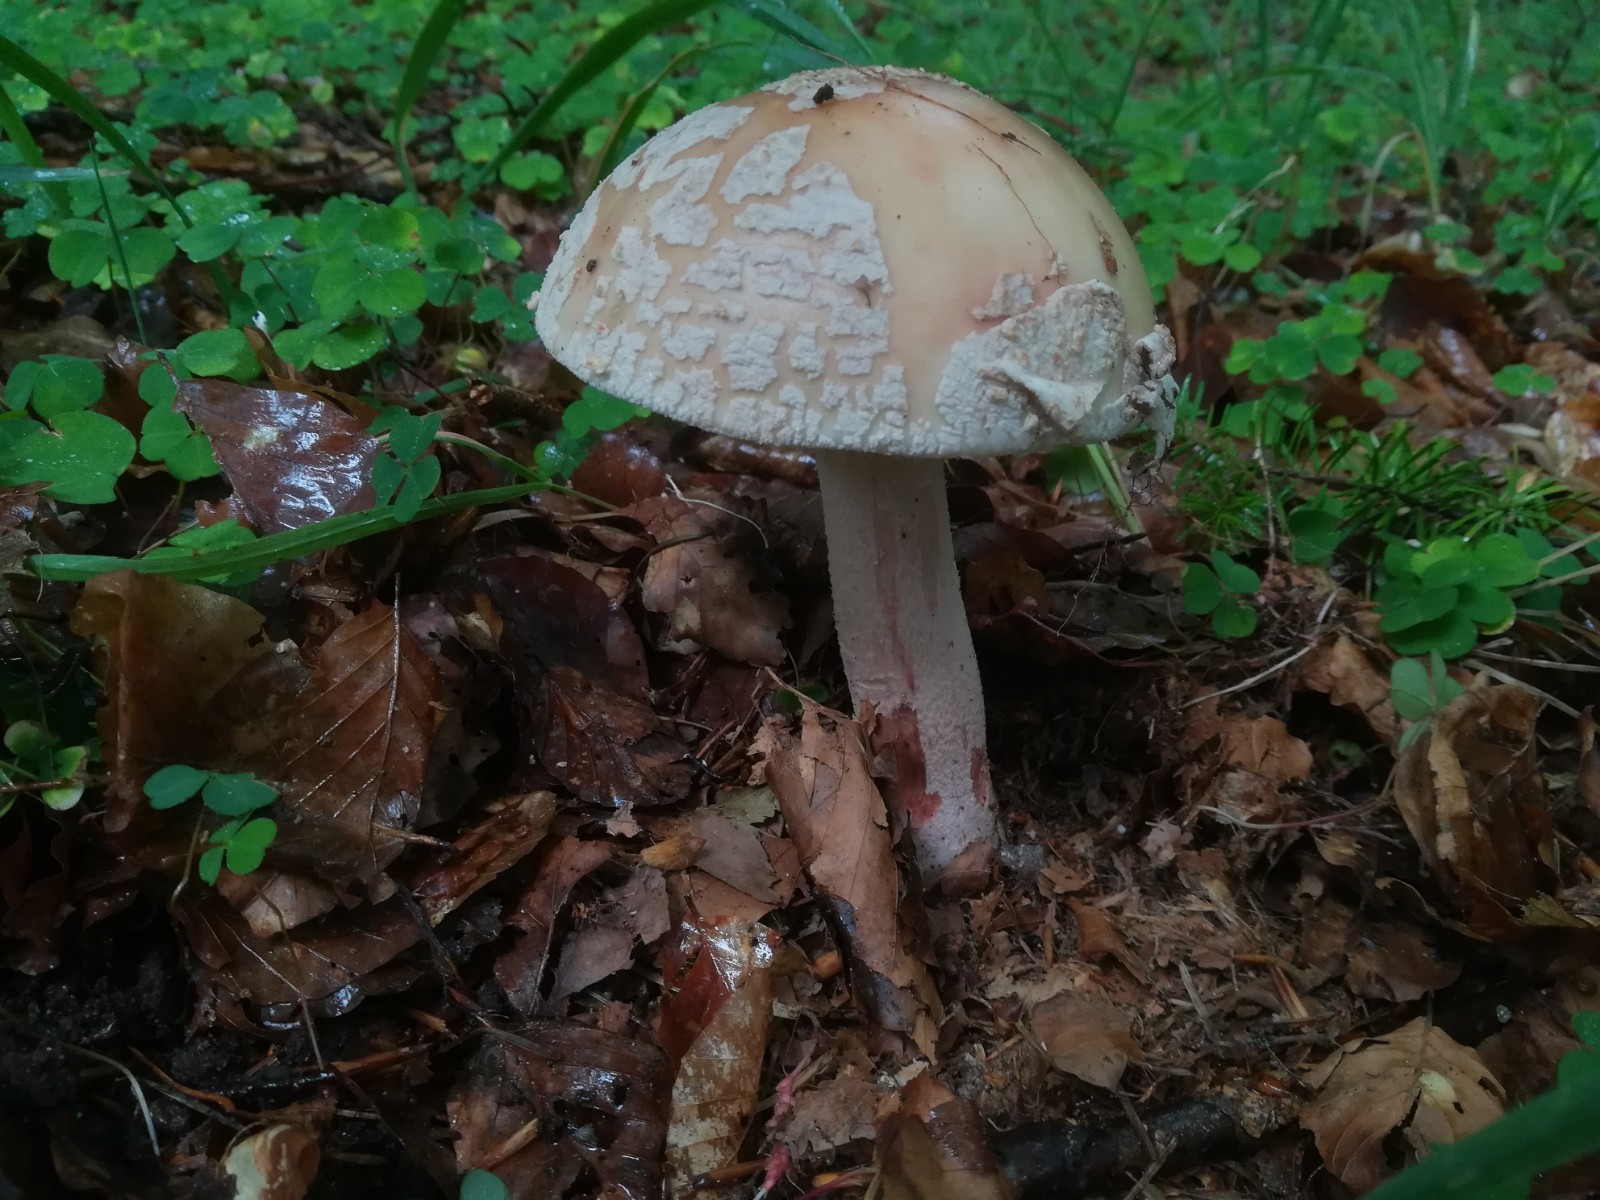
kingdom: Fungi
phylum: Basidiomycota
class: Agaricomycetes
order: Agaricales
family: Amanitaceae
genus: Amanita
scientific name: Amanita rubescens
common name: rødmende fluesvamp
